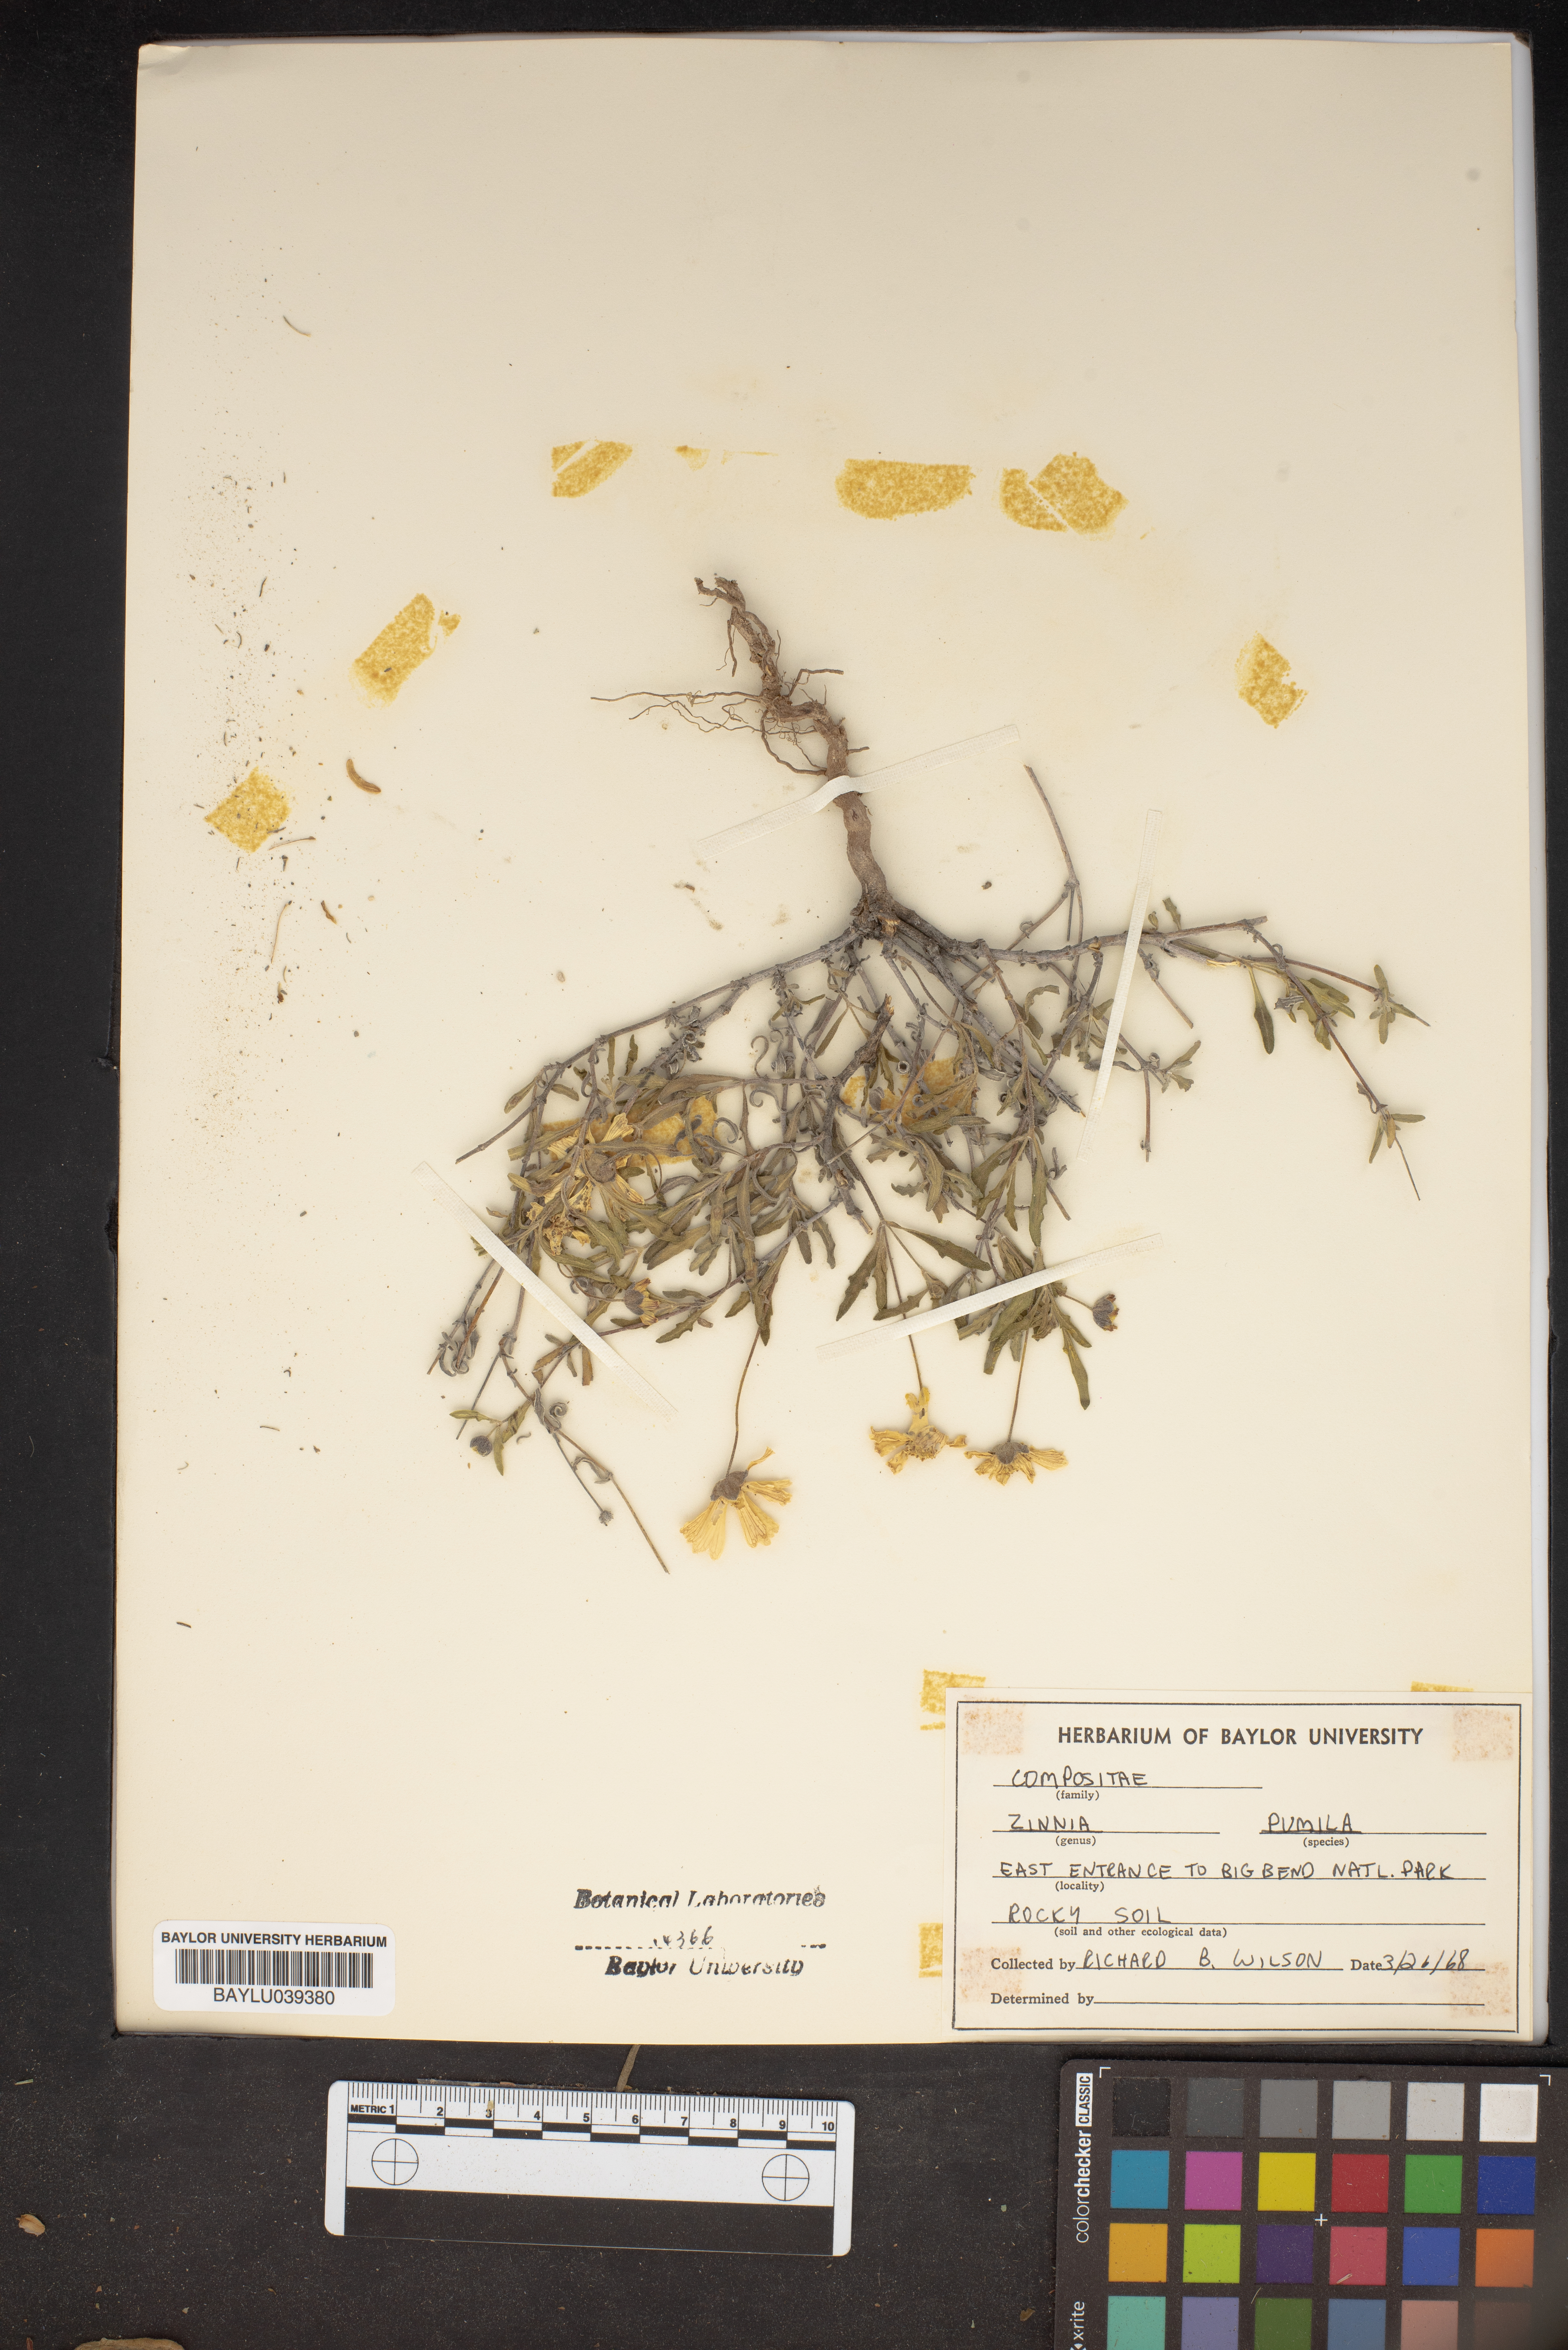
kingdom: Plantae
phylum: Tracheophyta
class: Magnoliopsida
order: Asterales
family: Asteraceae
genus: Zinnia
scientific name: Zinnia acerosa
